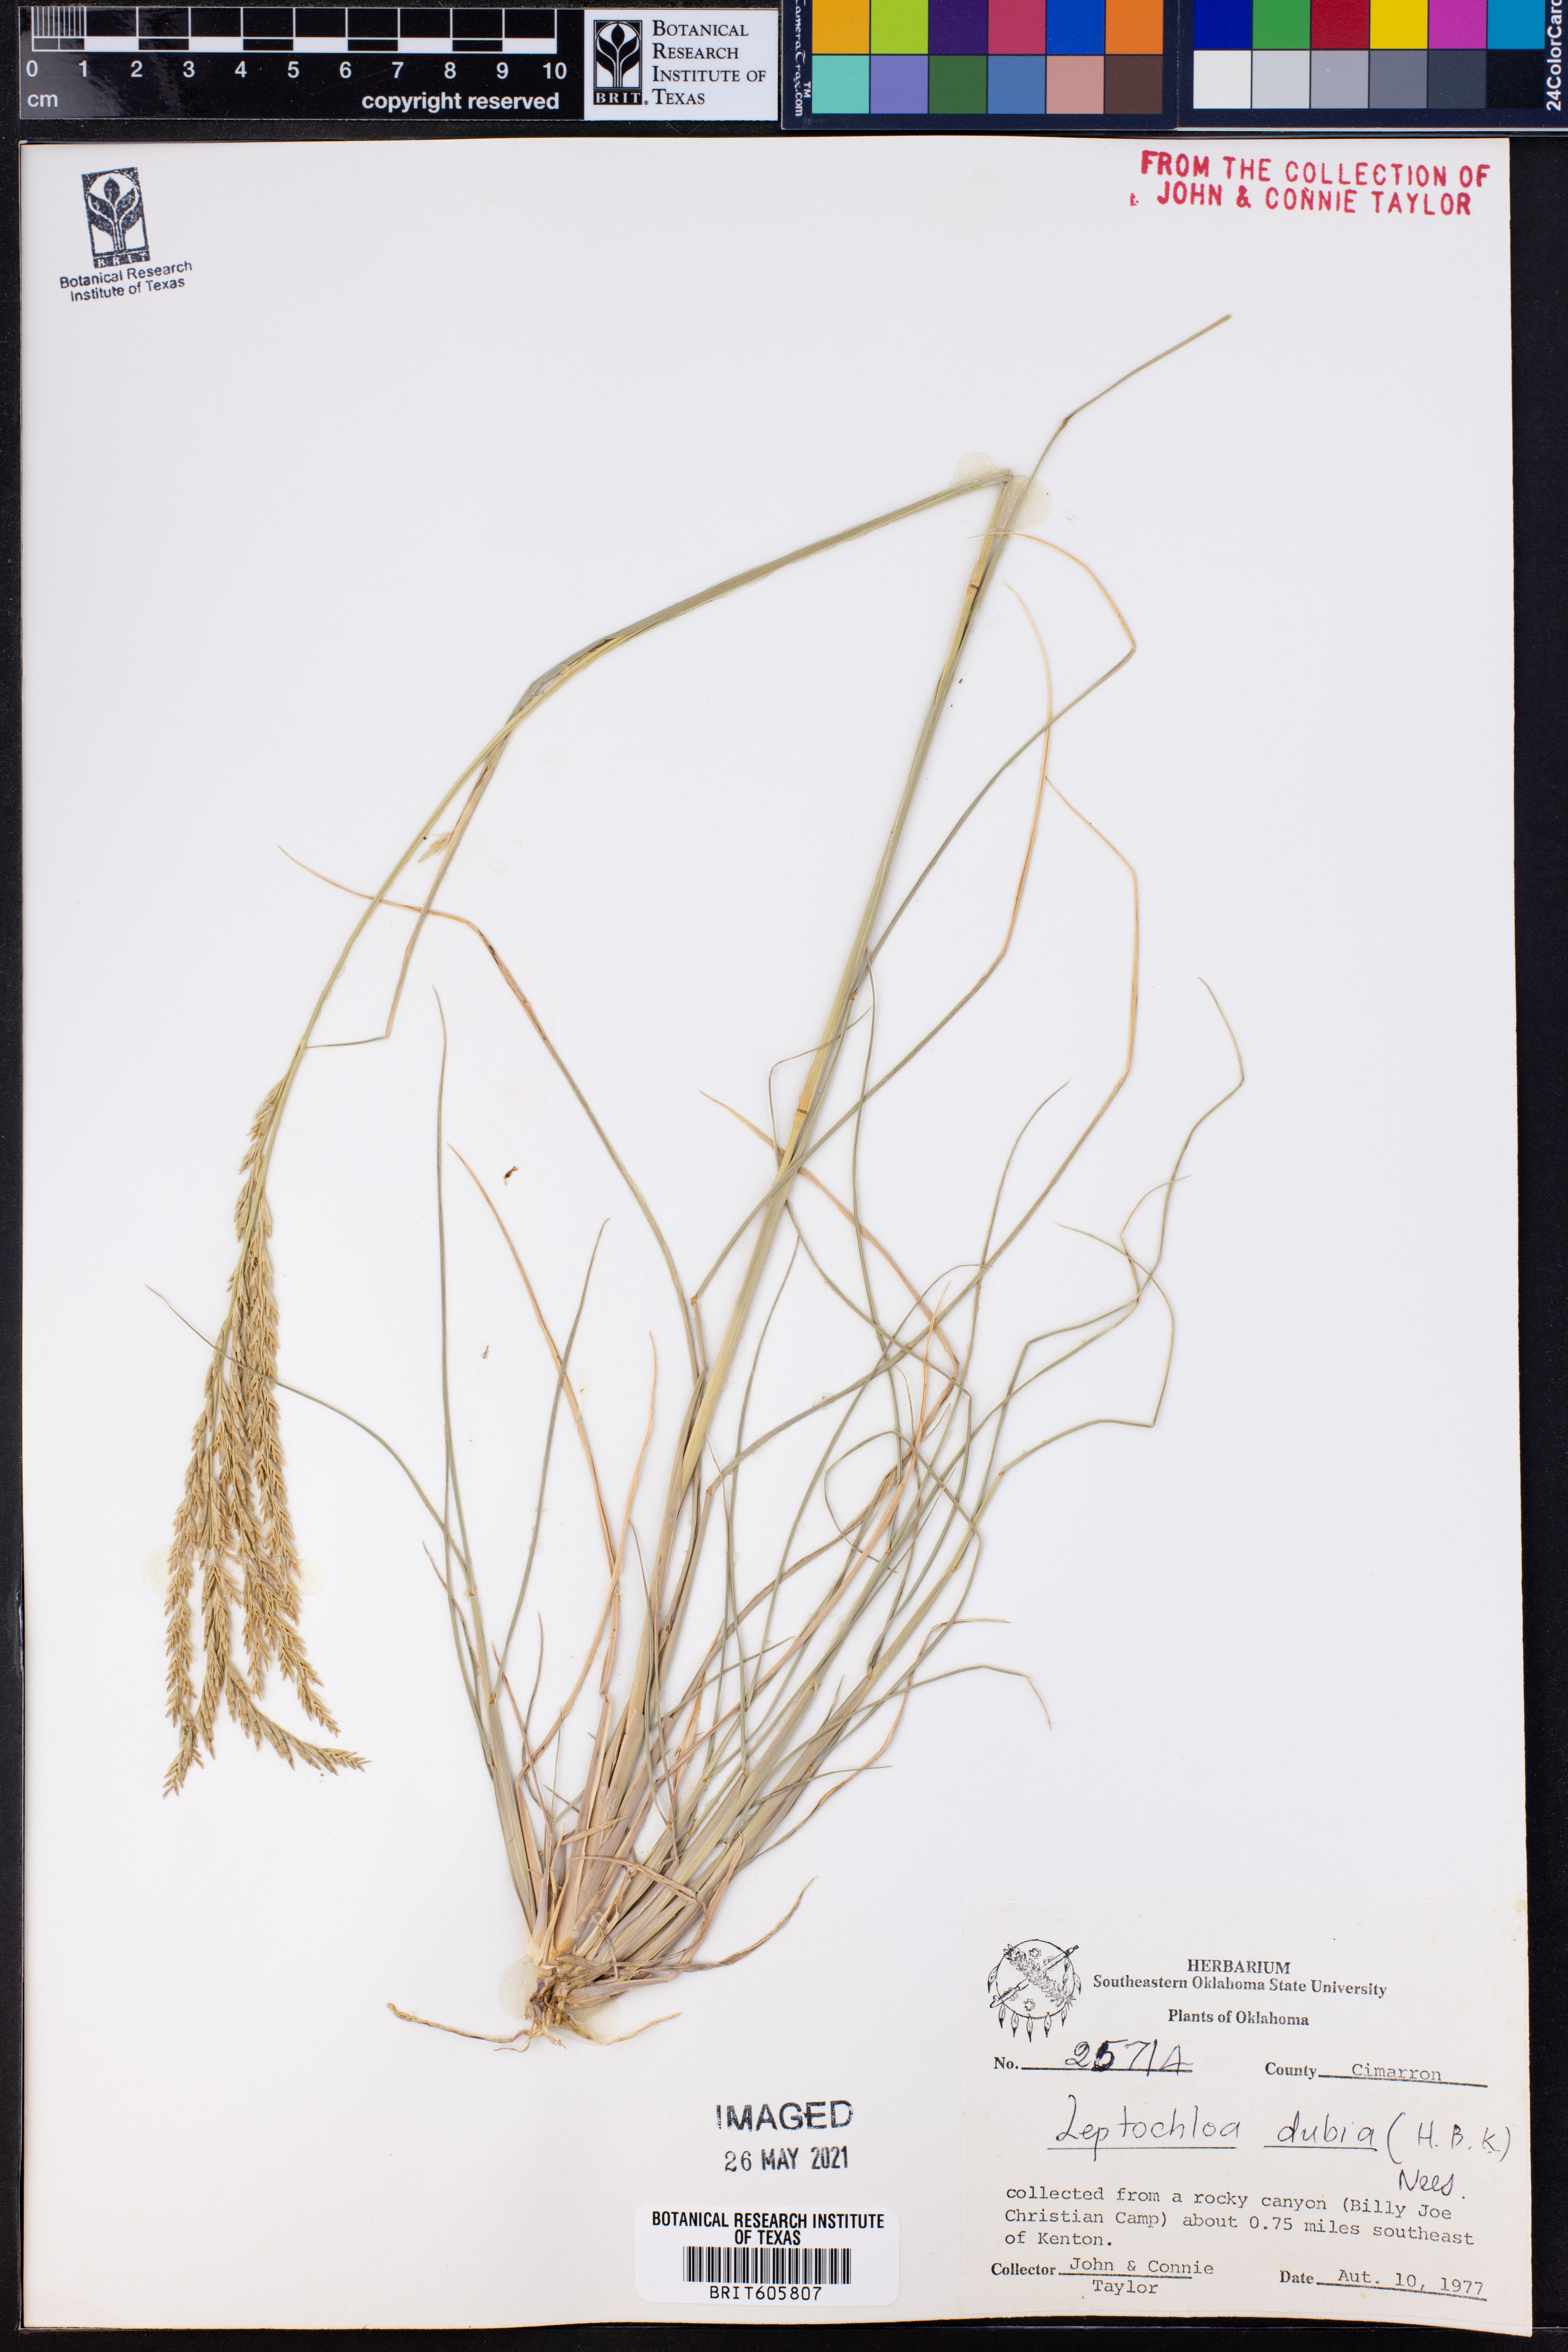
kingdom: Plantae
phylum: Tracheophyta
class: Liliopsida
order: Poales
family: Poaceae
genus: Disakisperma
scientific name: Disakisperma dubium
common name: Green sprangletop
